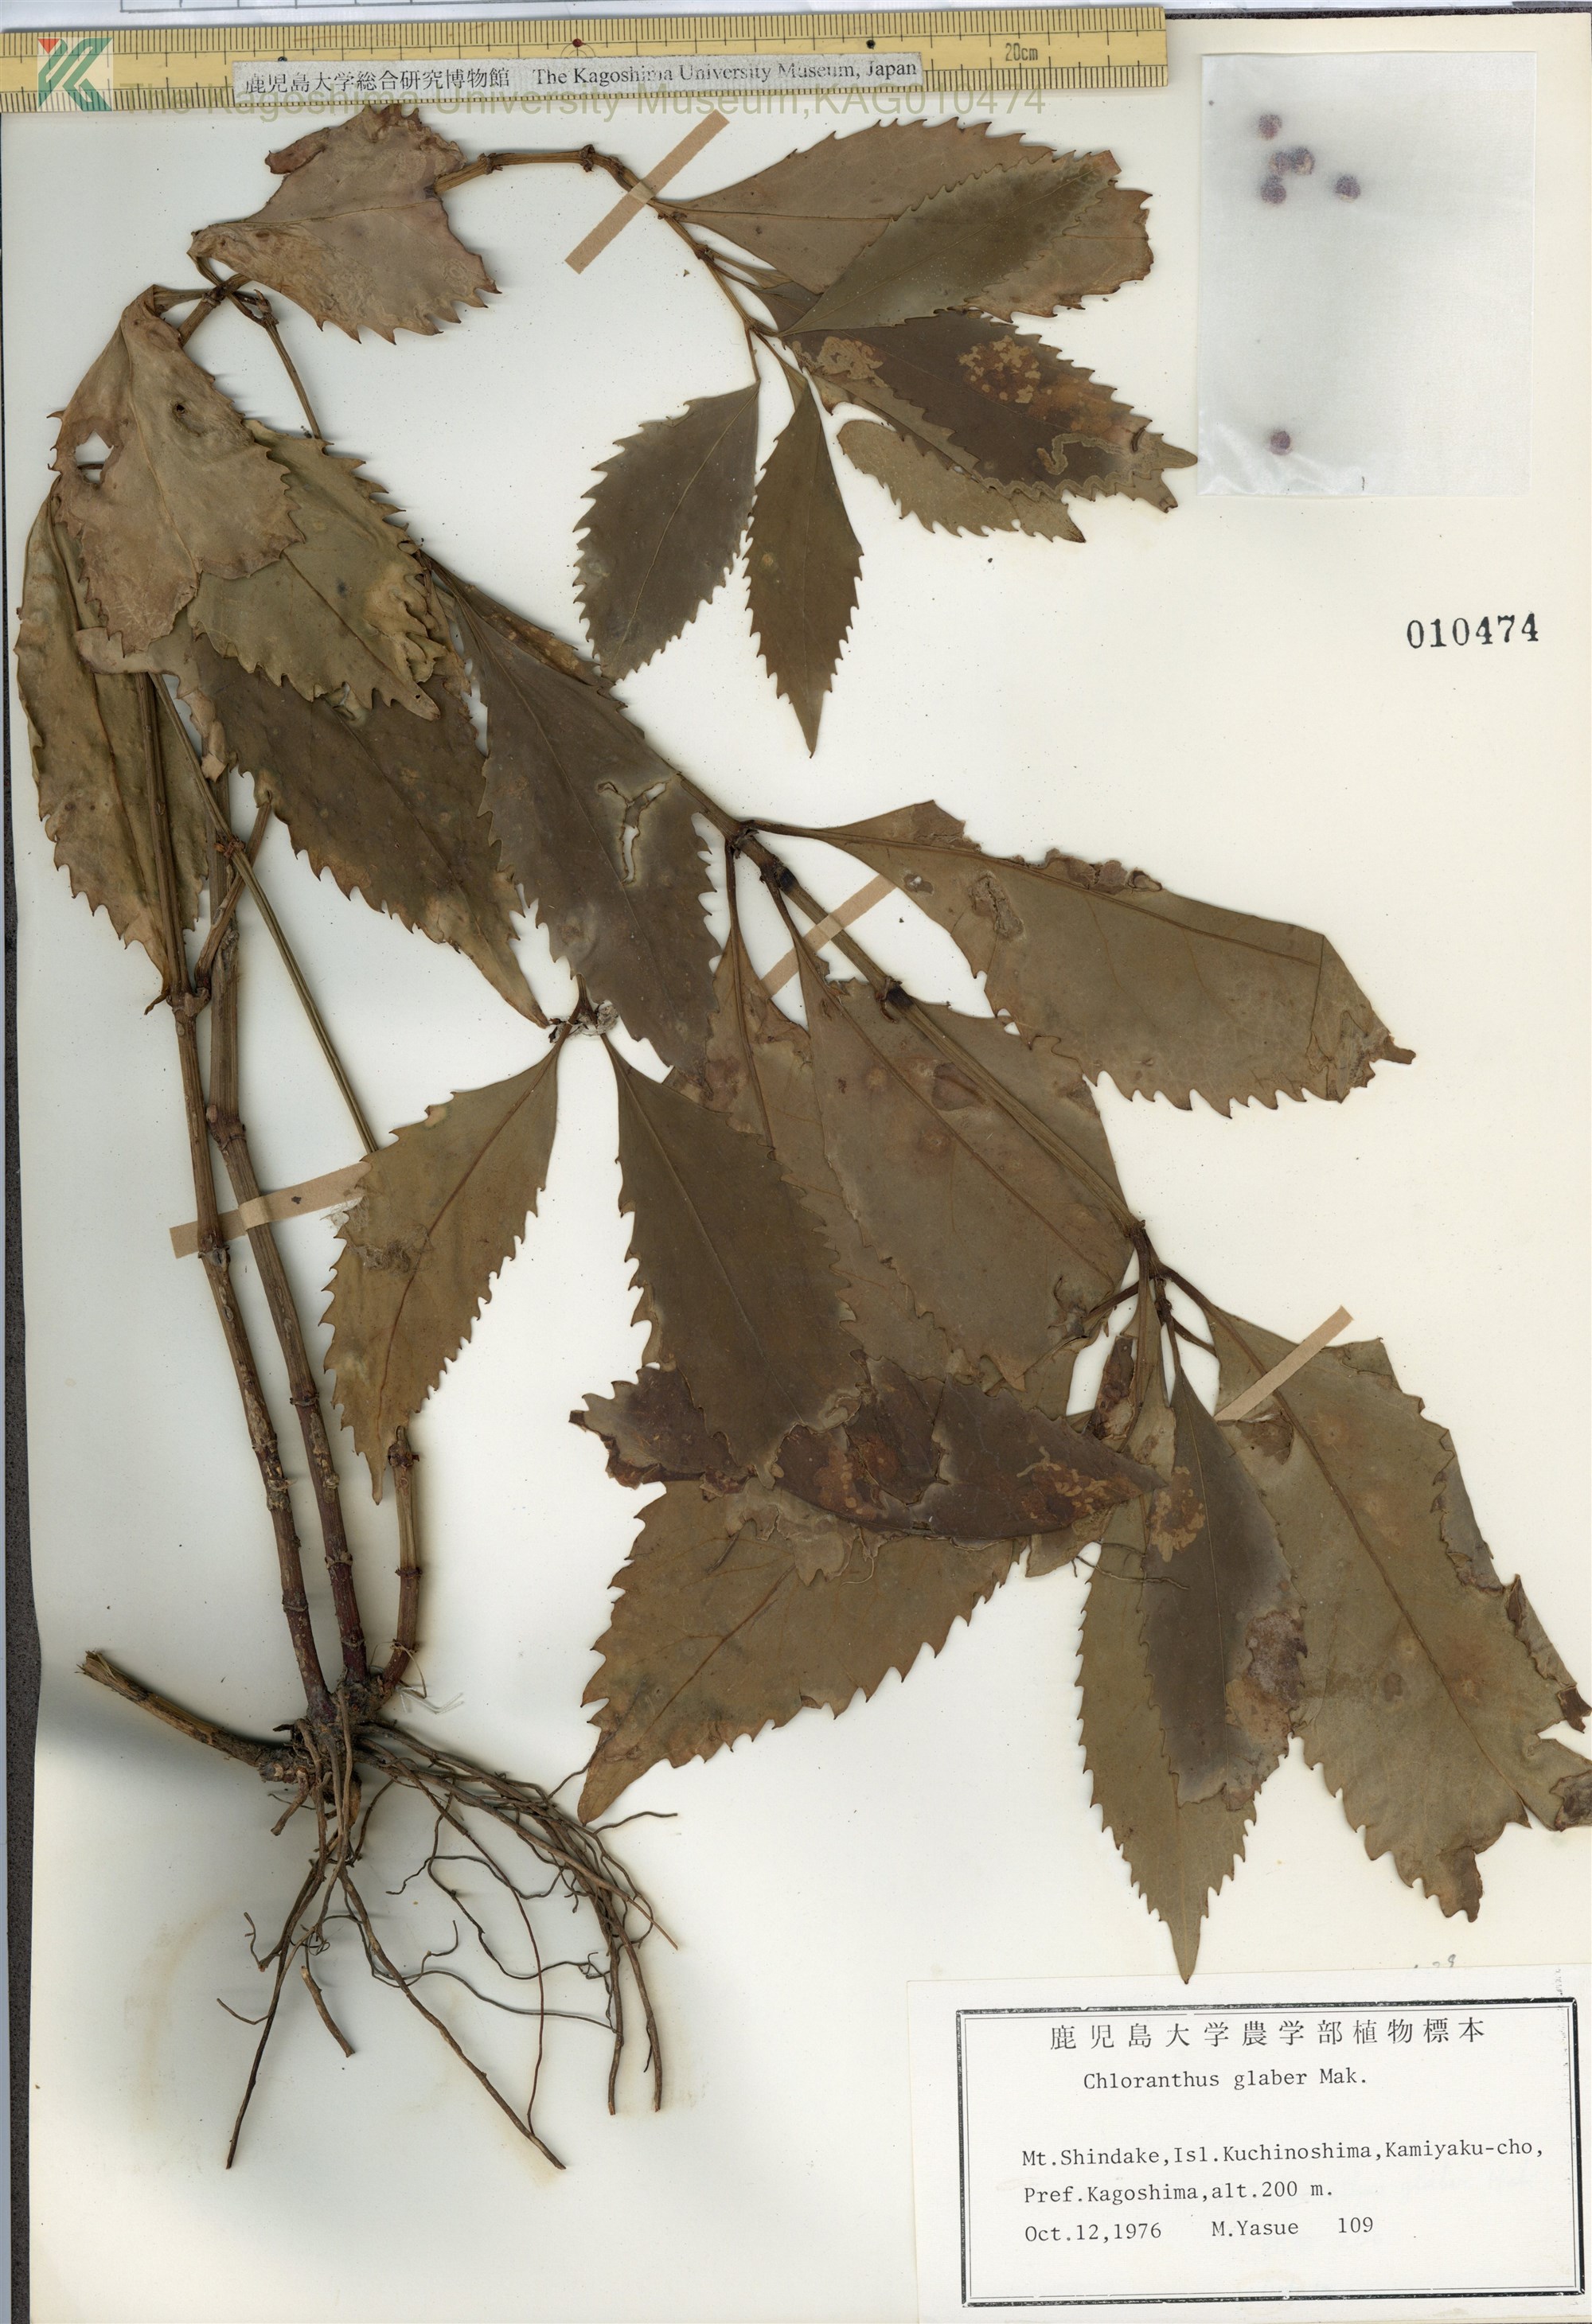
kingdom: Plantae
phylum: Tracheophyta
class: Magnoliopsida
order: Chloranthales
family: Chloranthaceae
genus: Sarcandra
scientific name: Sarcandra glabra
